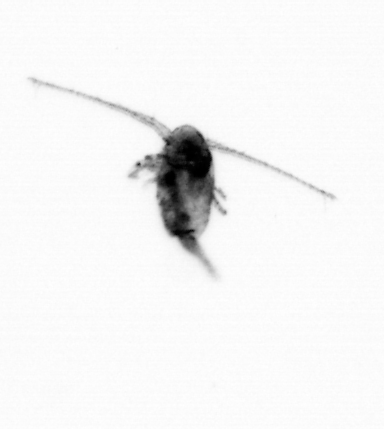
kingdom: Animalia
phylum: Arthropoda
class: Copepoda
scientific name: Copepoda
